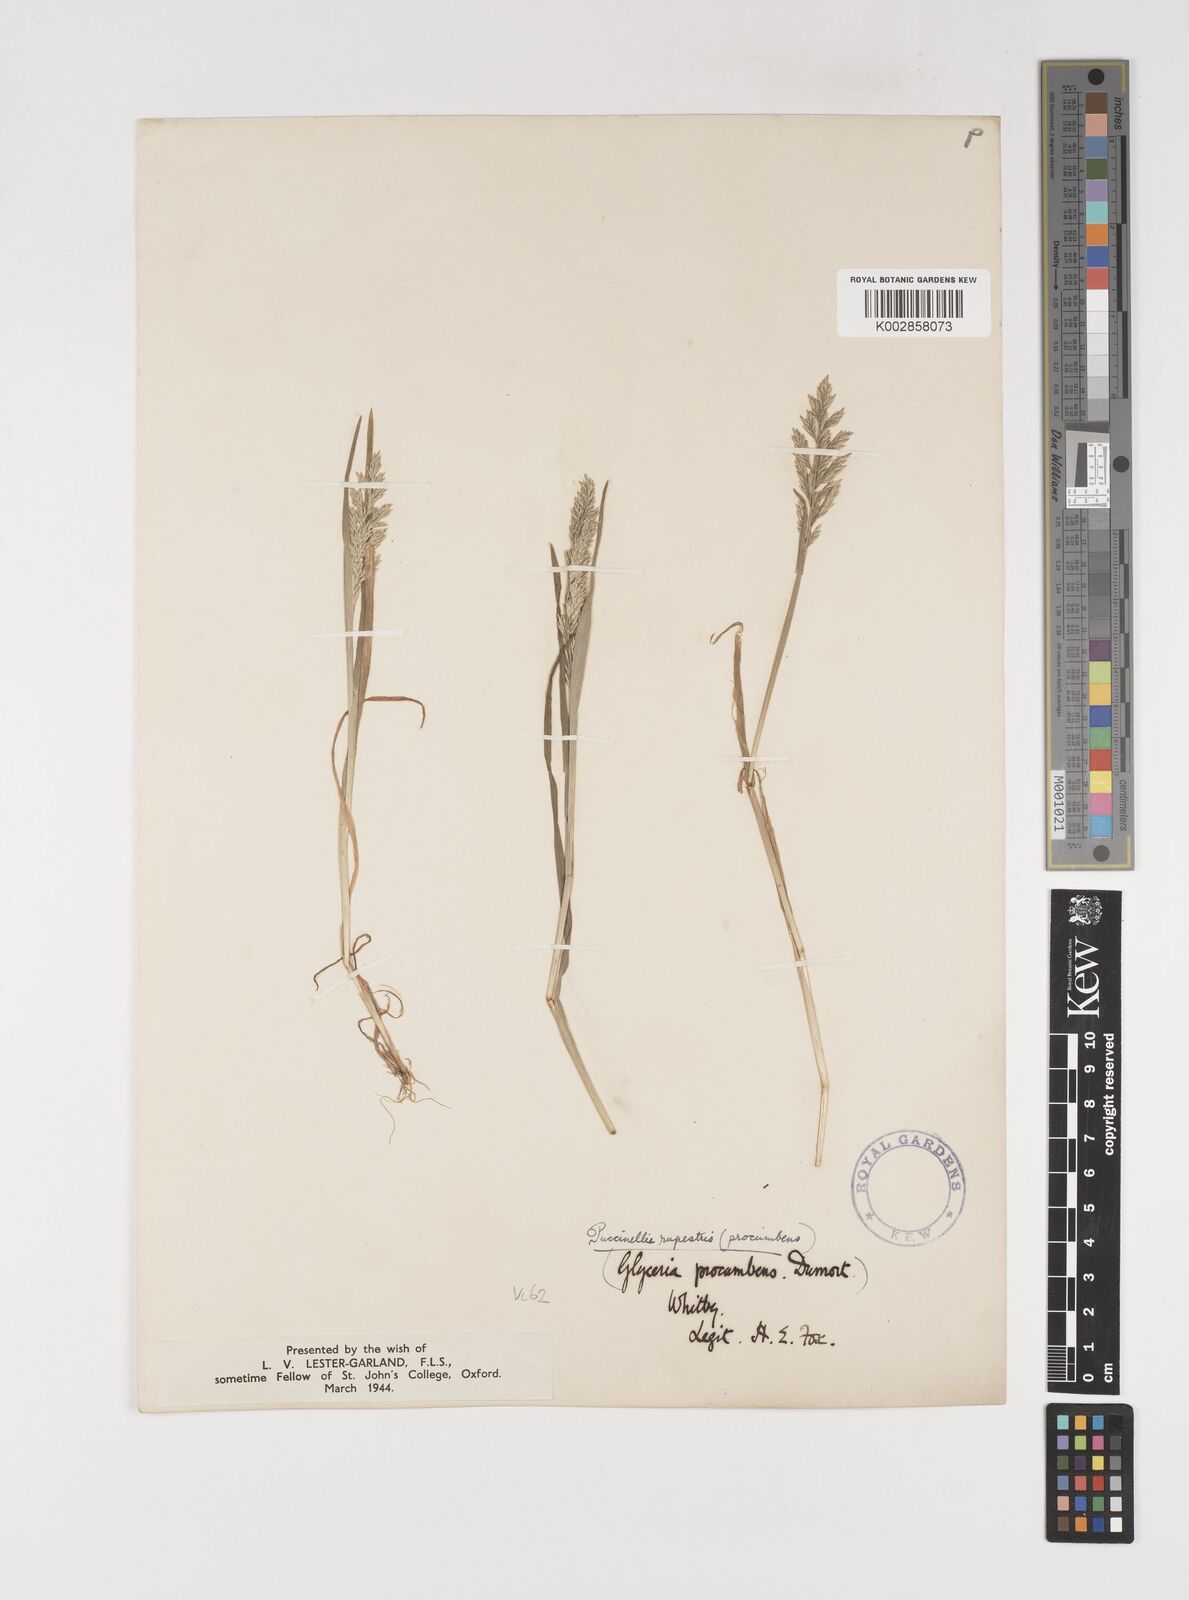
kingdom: Plantae
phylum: Tracheophyta
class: Liliopsida
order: Poales
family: Poaceae
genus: Puccinellia
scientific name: Puccinellia rupestris
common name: Stiff saltmarsh-grass
